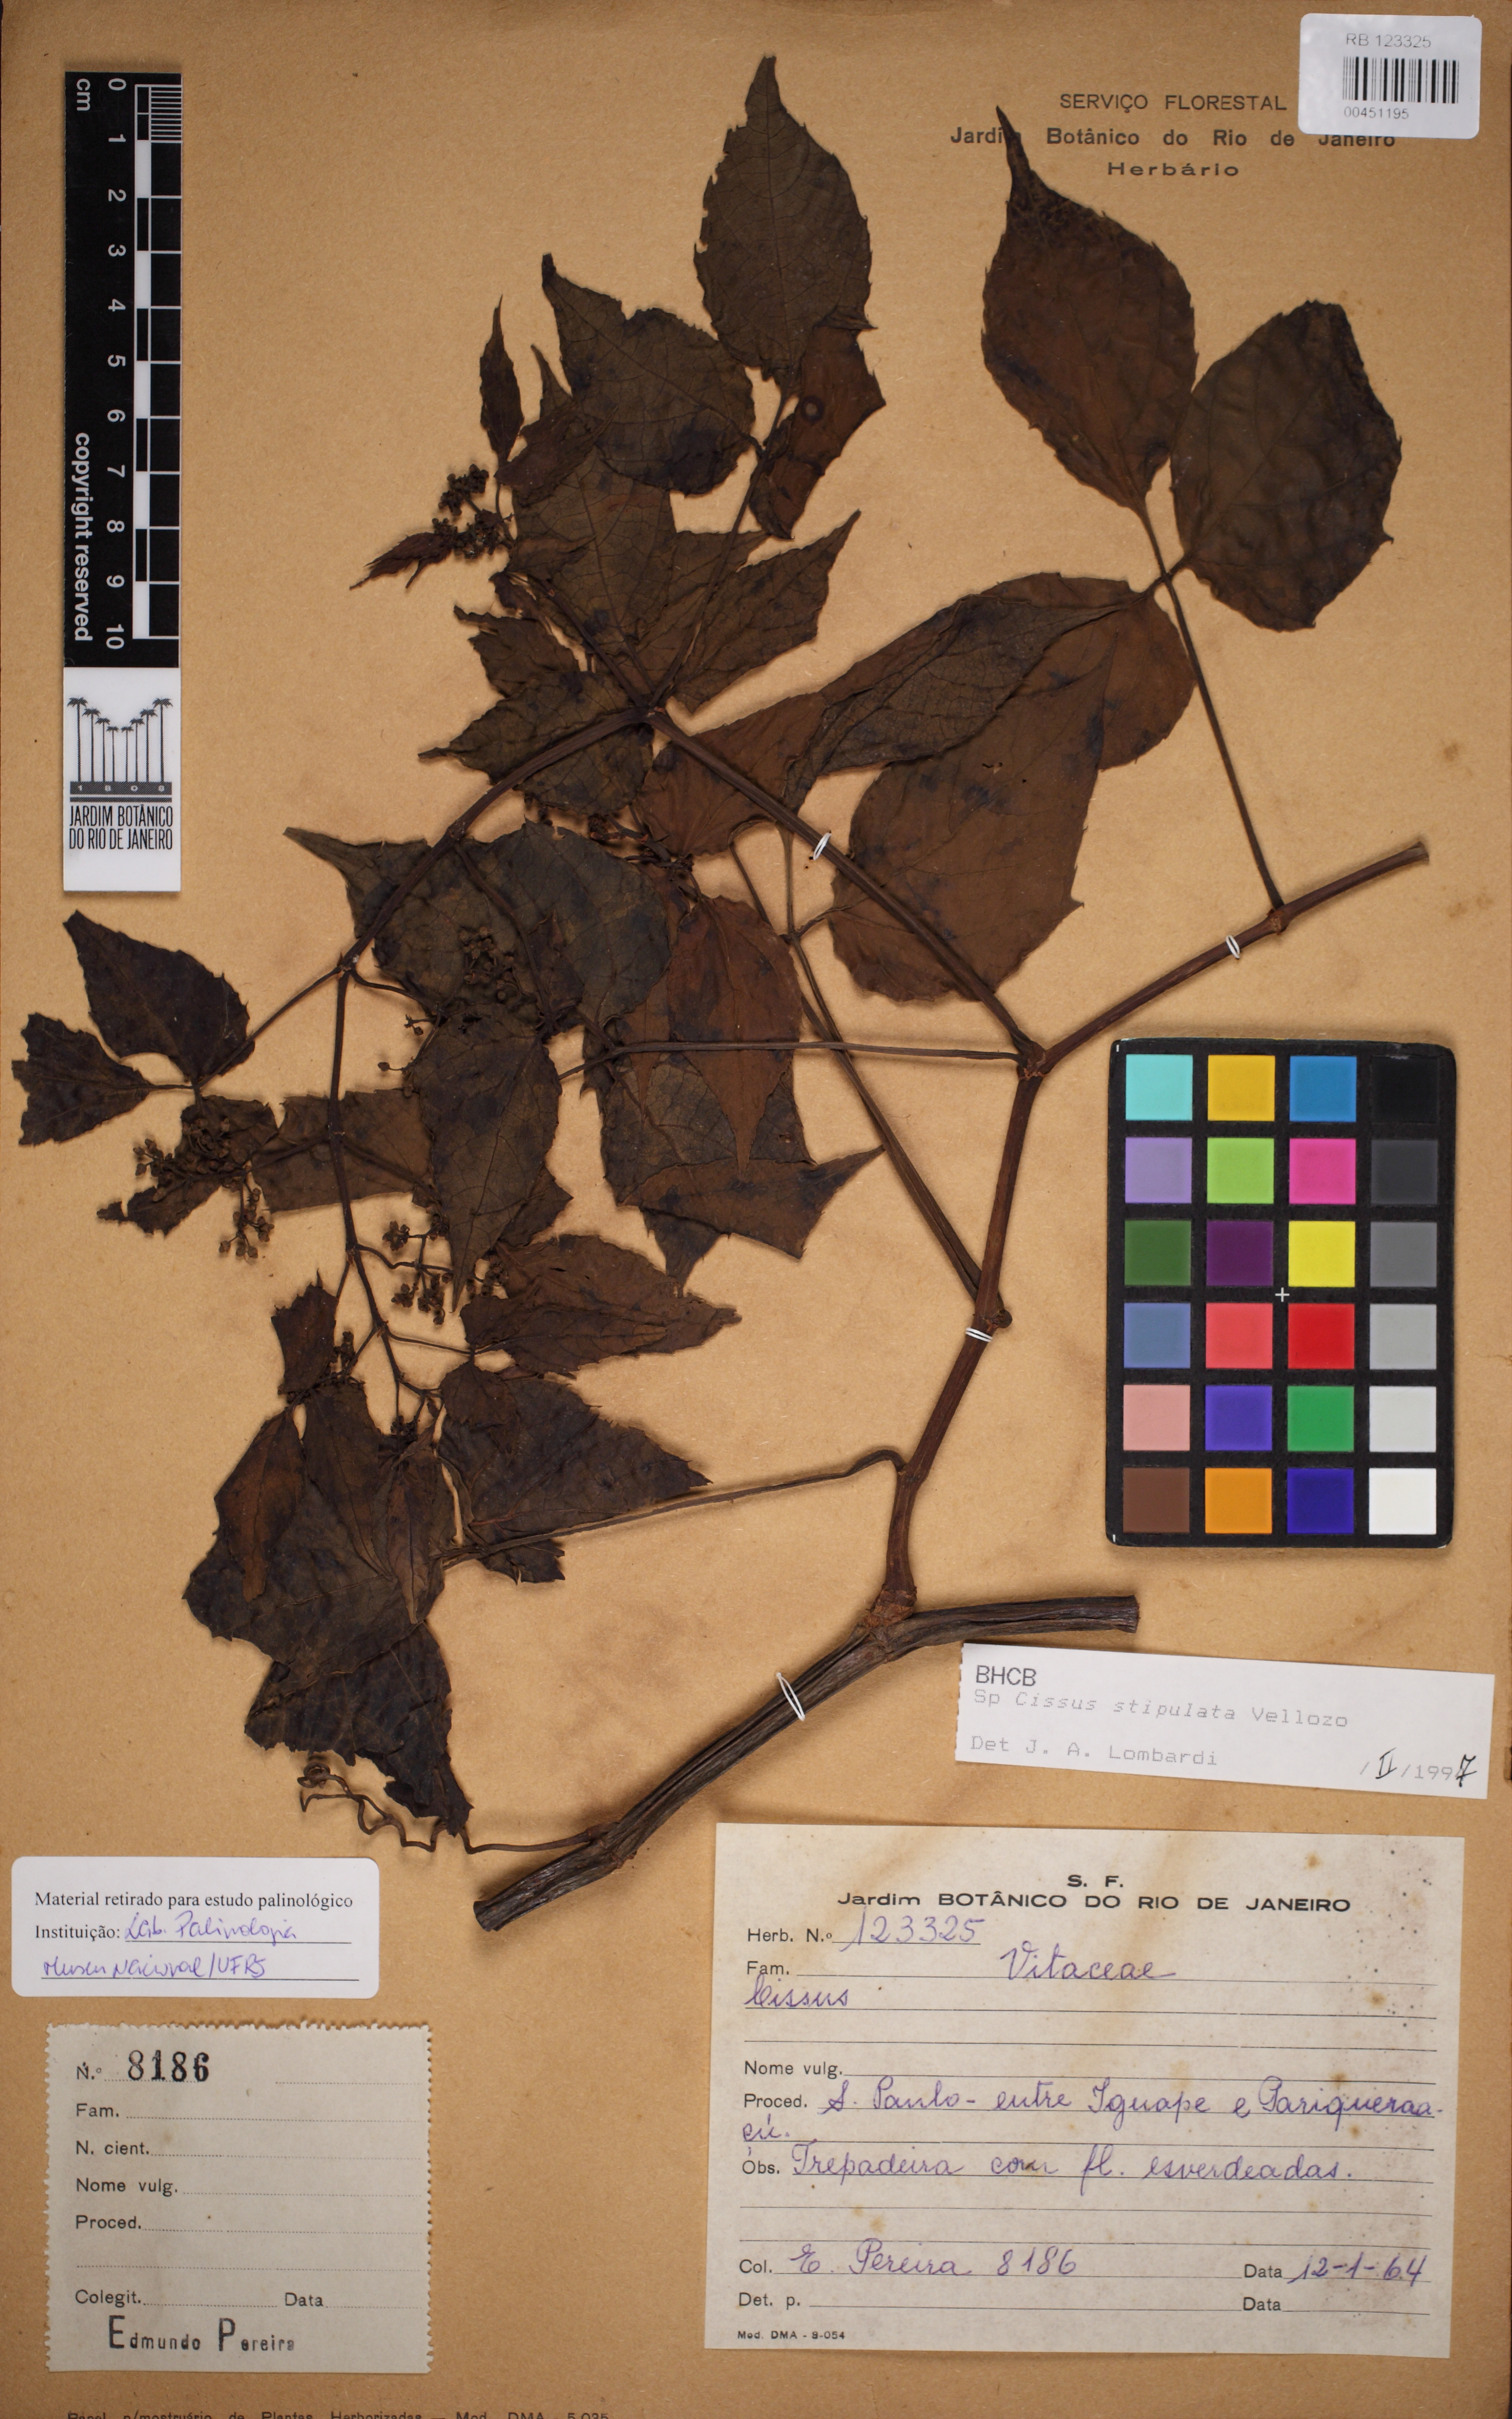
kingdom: Plantae
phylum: Tracheophyta
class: Magnoliopsida
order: Vitales
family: Vitaceae
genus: Cissus
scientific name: Cissus stipulata
